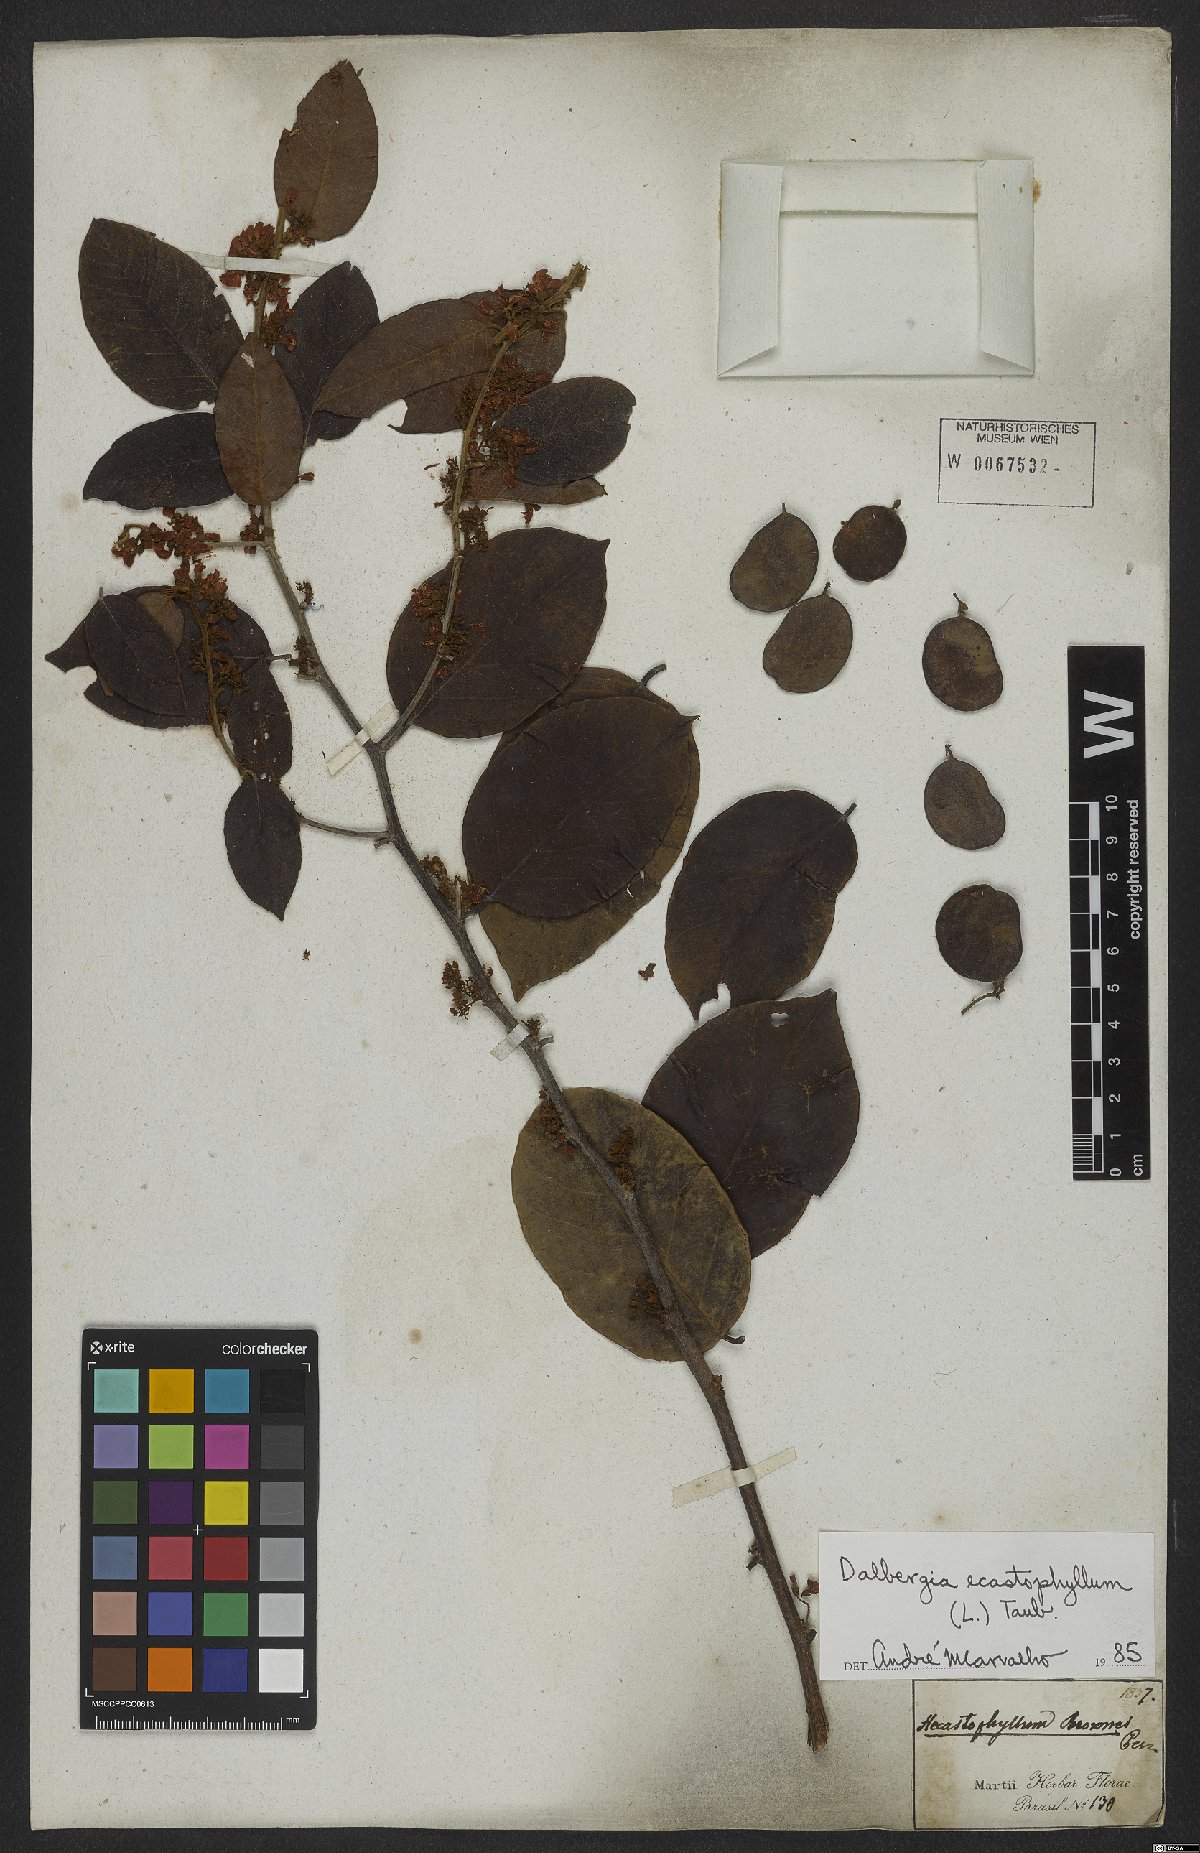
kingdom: Plantae
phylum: Tracheophyta
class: Magnoliopsida
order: Fabales
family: Fabaceae
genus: Dalbergia
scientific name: Dalbergia ecastaphyllum
